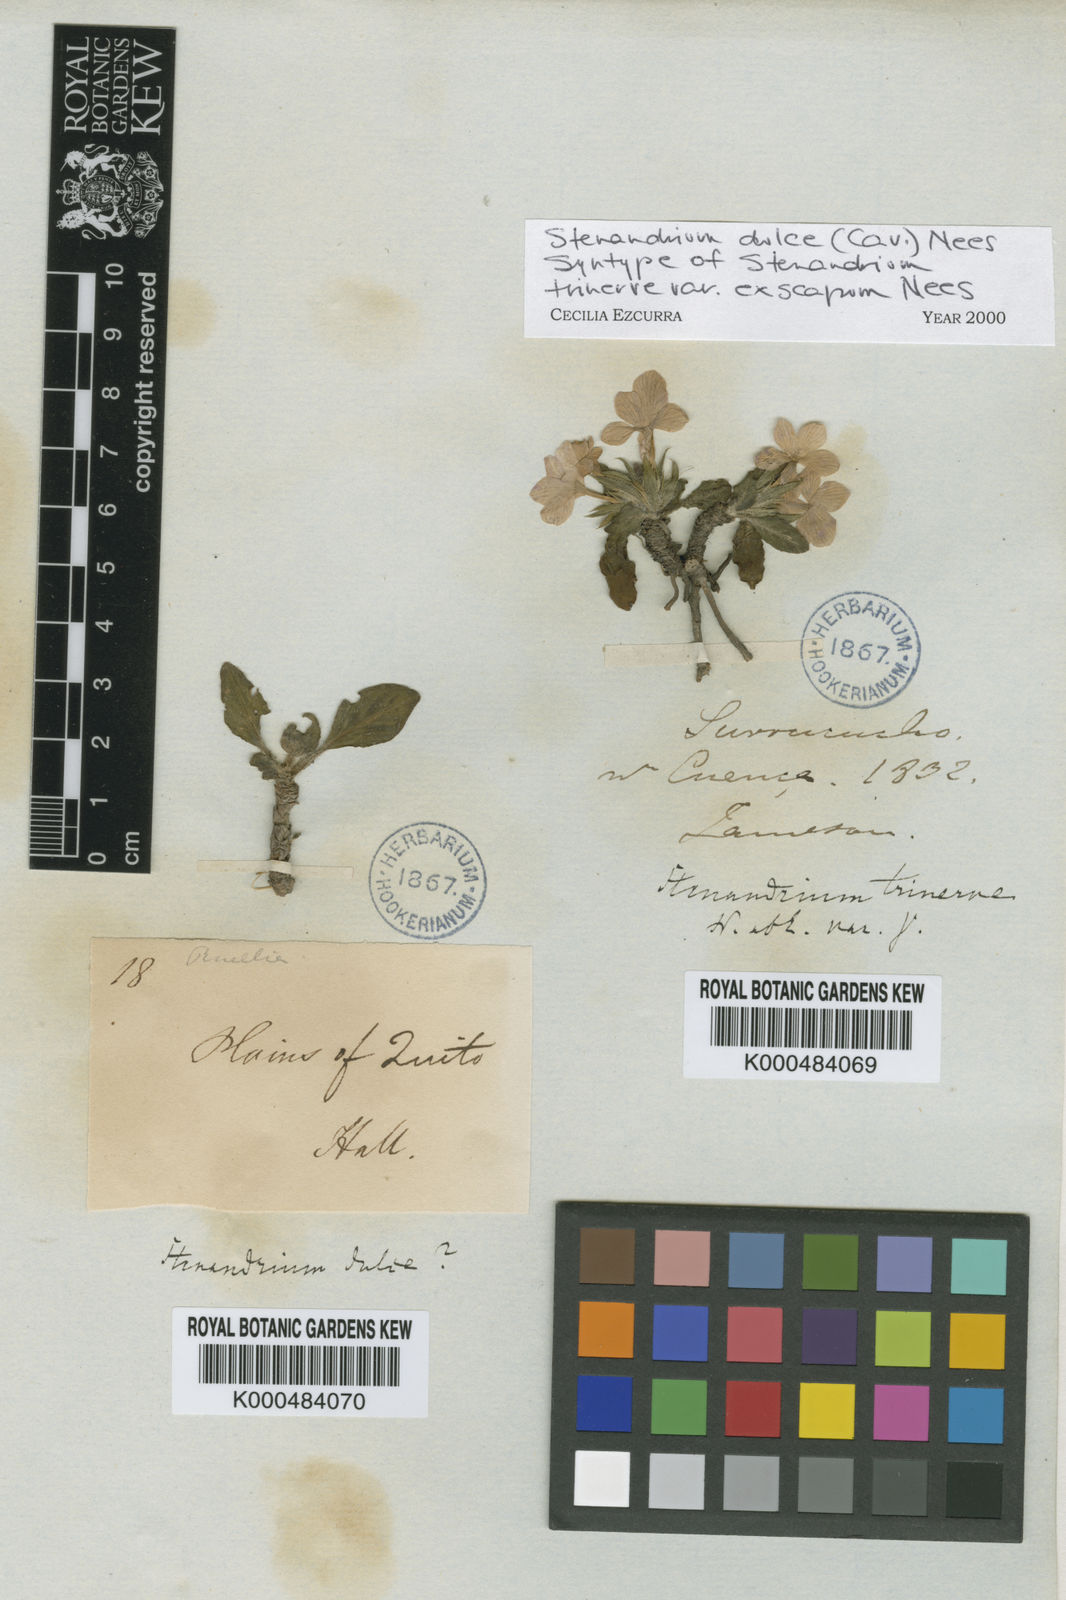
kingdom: Plantae
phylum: Tracheophyta
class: Magnoliopsida
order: Lamiales
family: Acanthaceae
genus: Stenandrium
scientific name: Stenandrium dulce
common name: Pinklet
